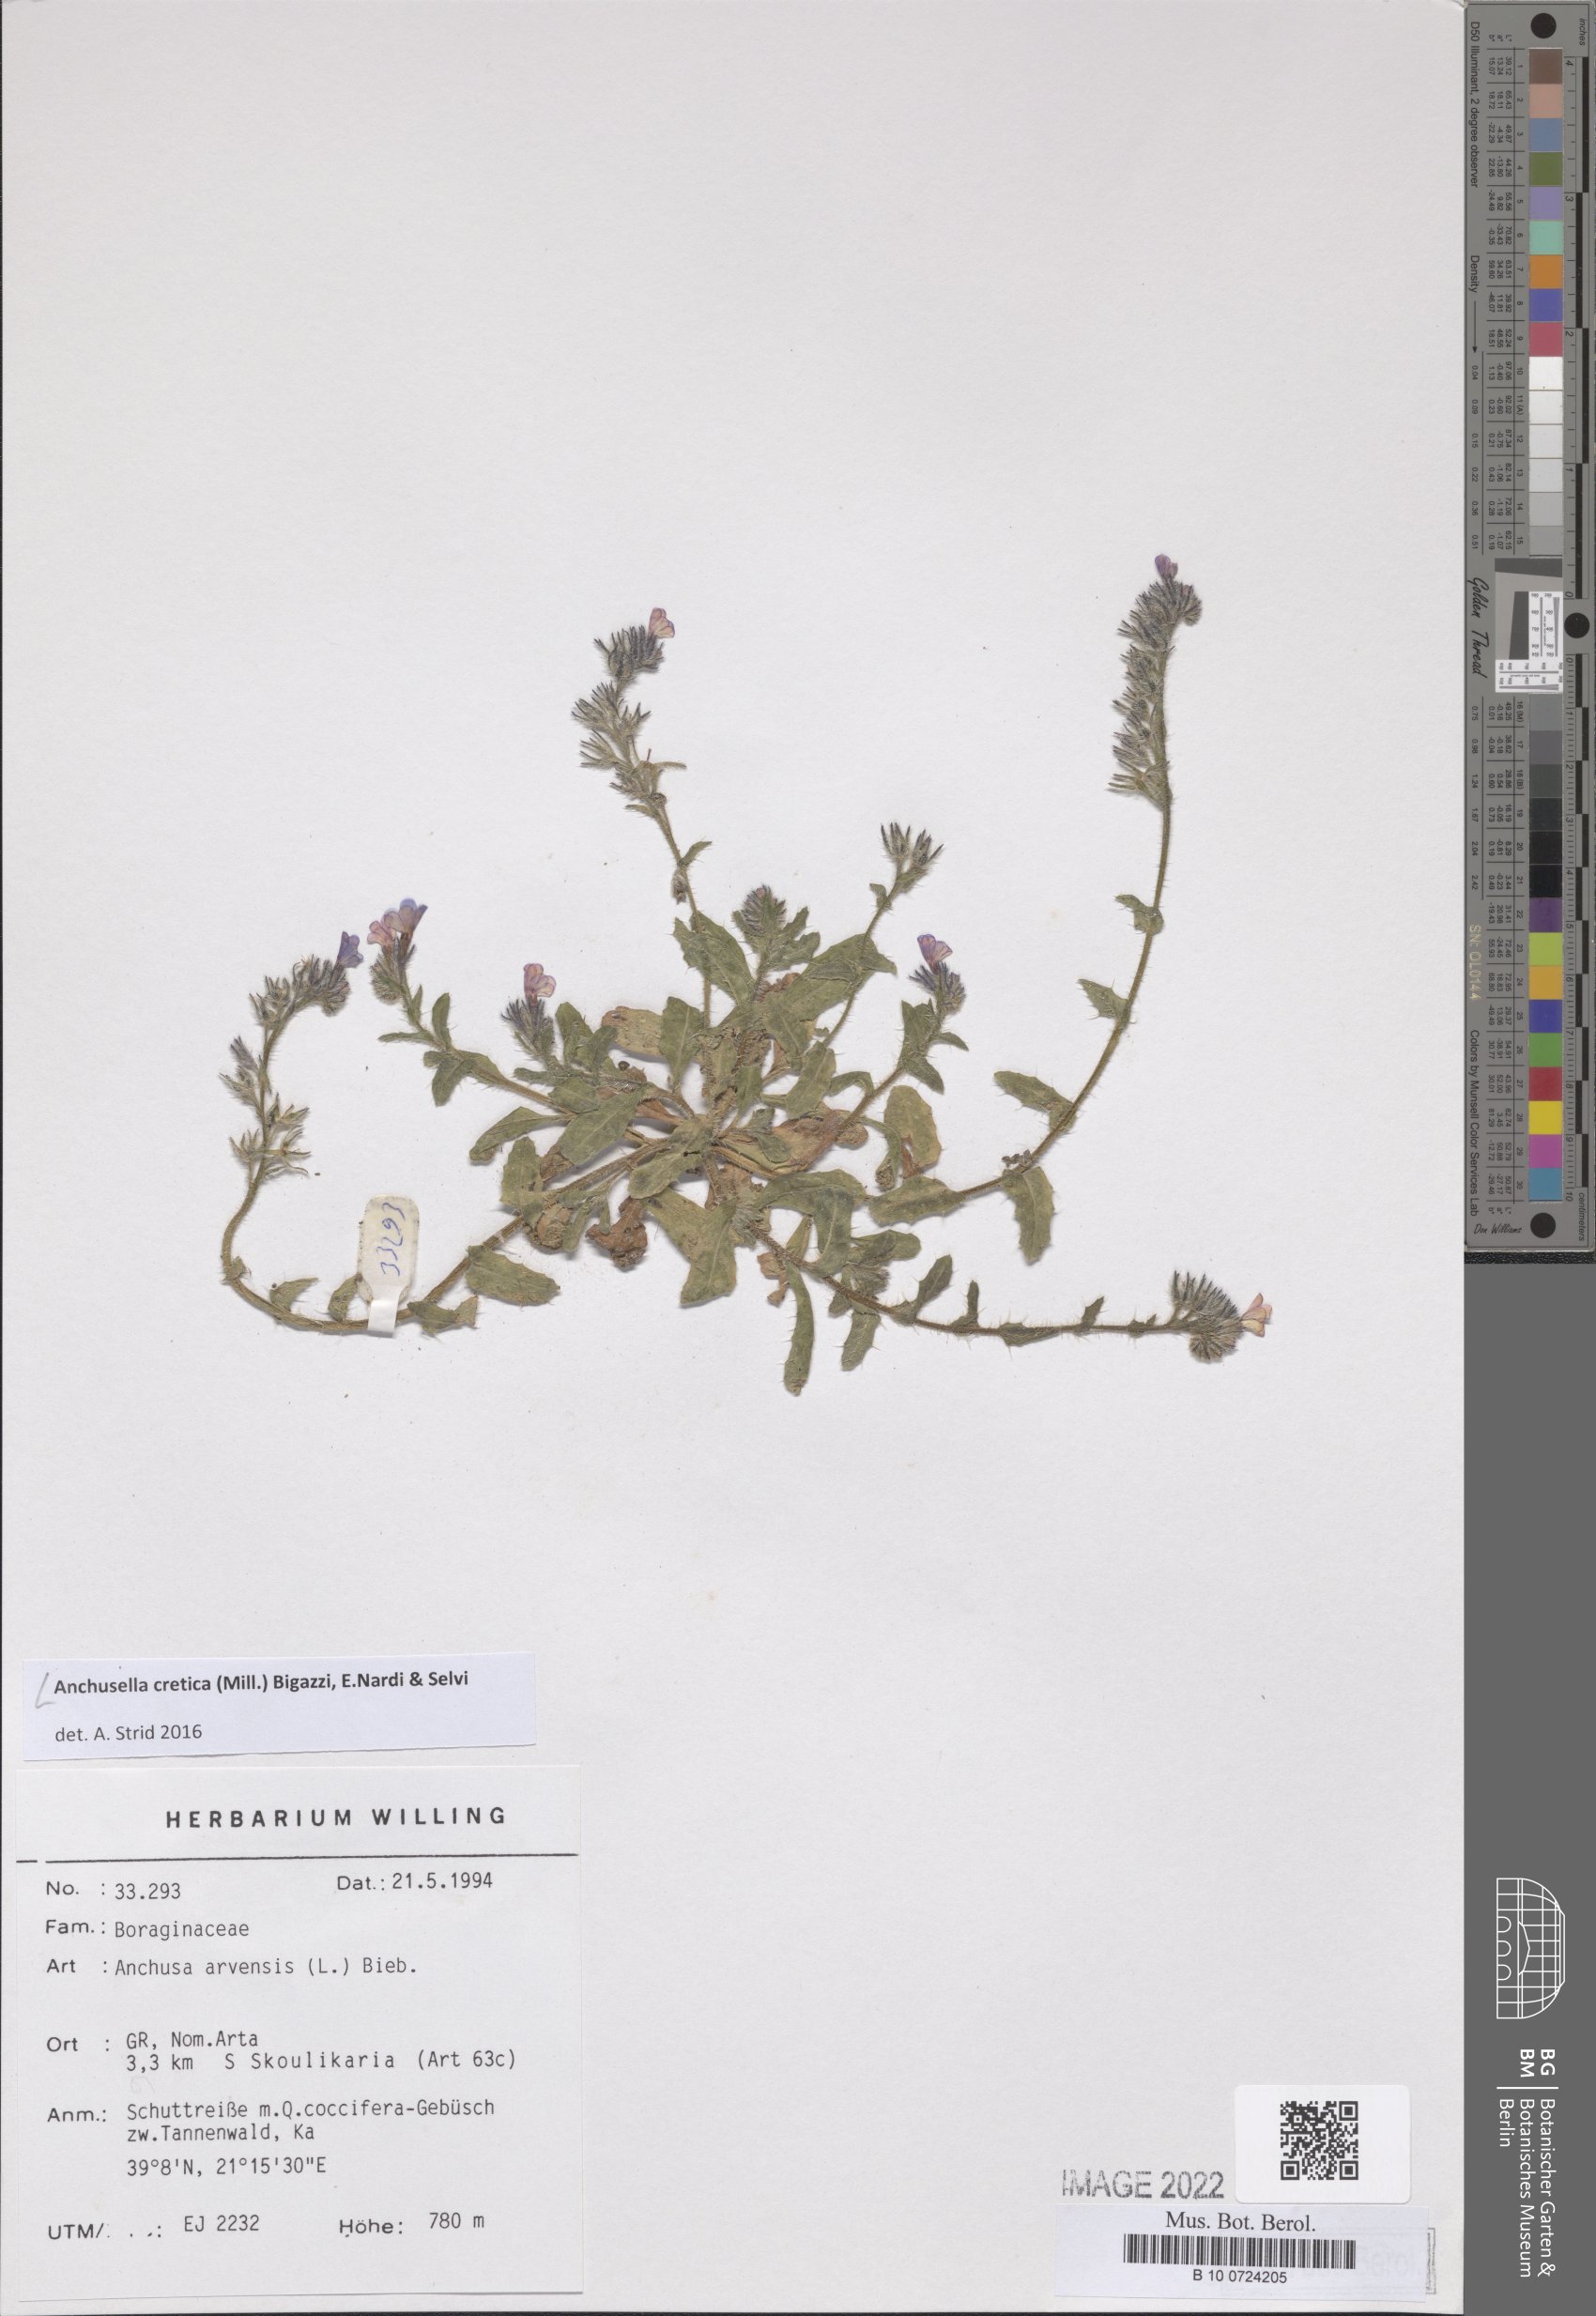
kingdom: Plantae
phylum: Tracheophyta
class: Magnoliopsida
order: Boraginales
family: Boraginaceae
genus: Anchusella
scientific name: Anchusella cretica
